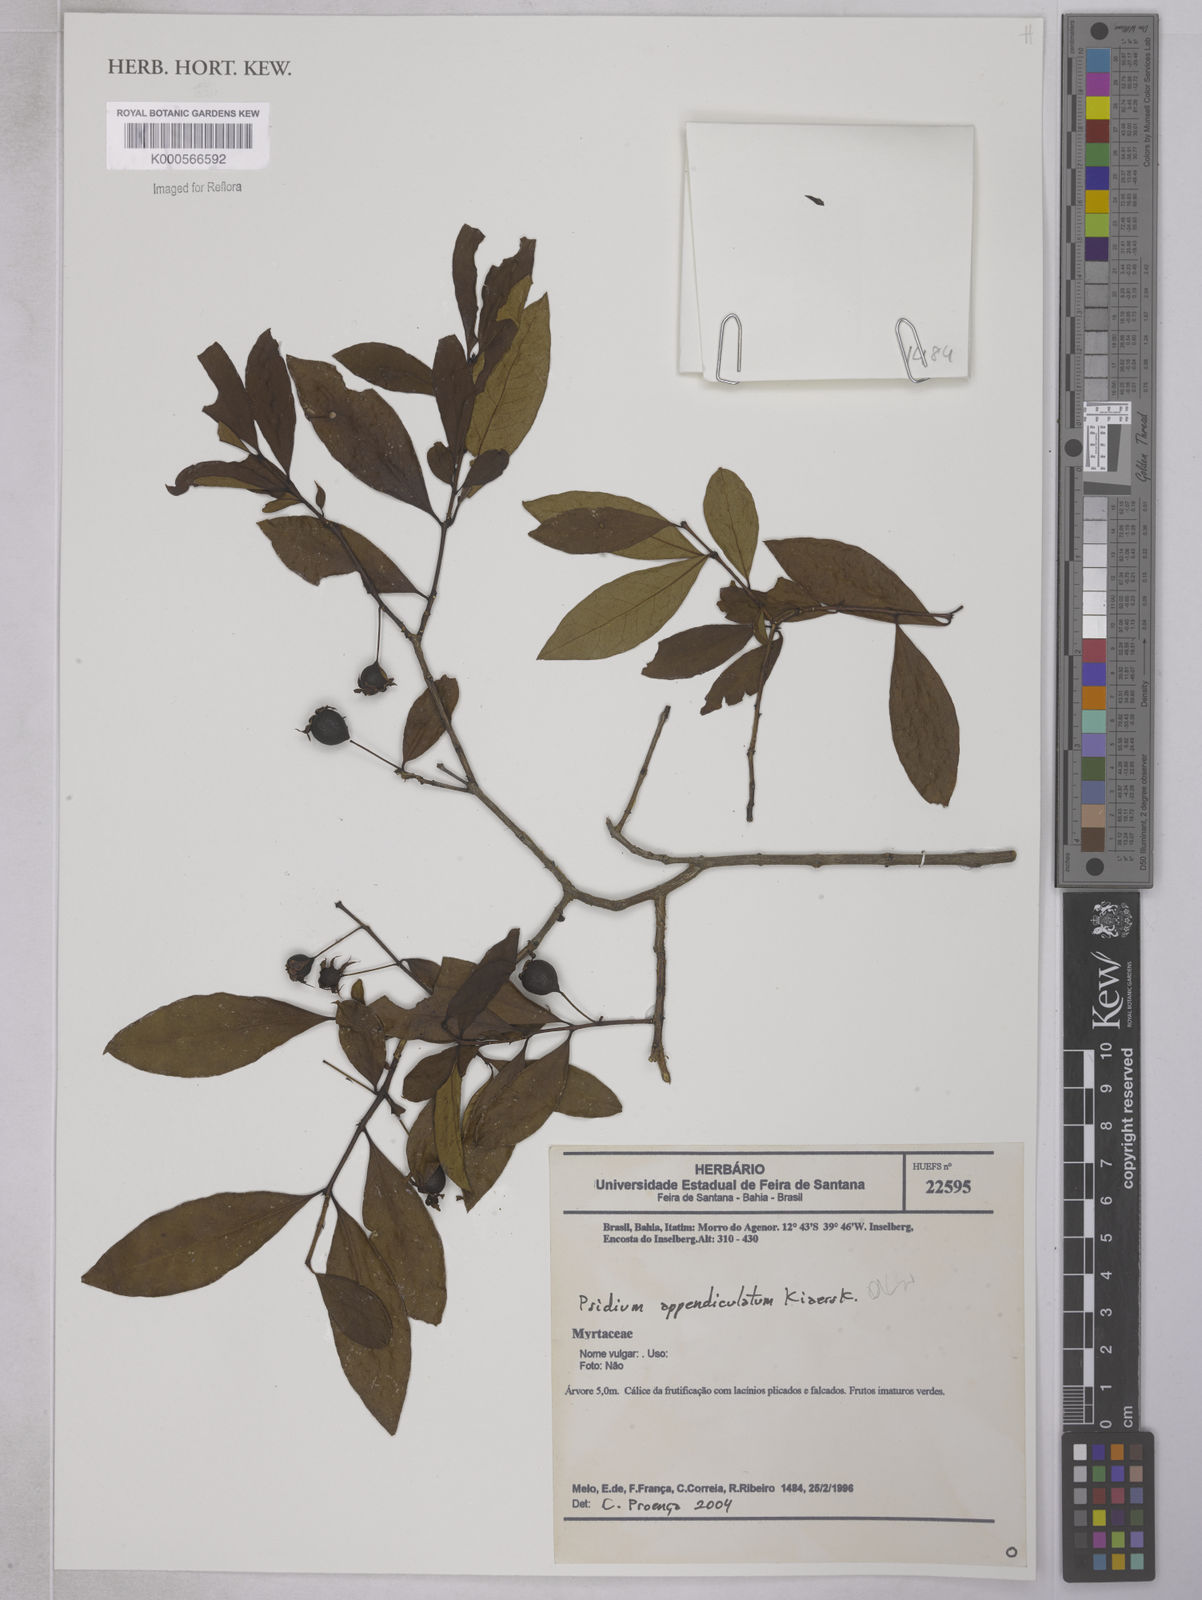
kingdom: Plantae
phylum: Tracheophyta
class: Magnoliopsida
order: Myrtales
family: Myrtaceae
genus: Psidium
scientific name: Psidium appendiculatum
